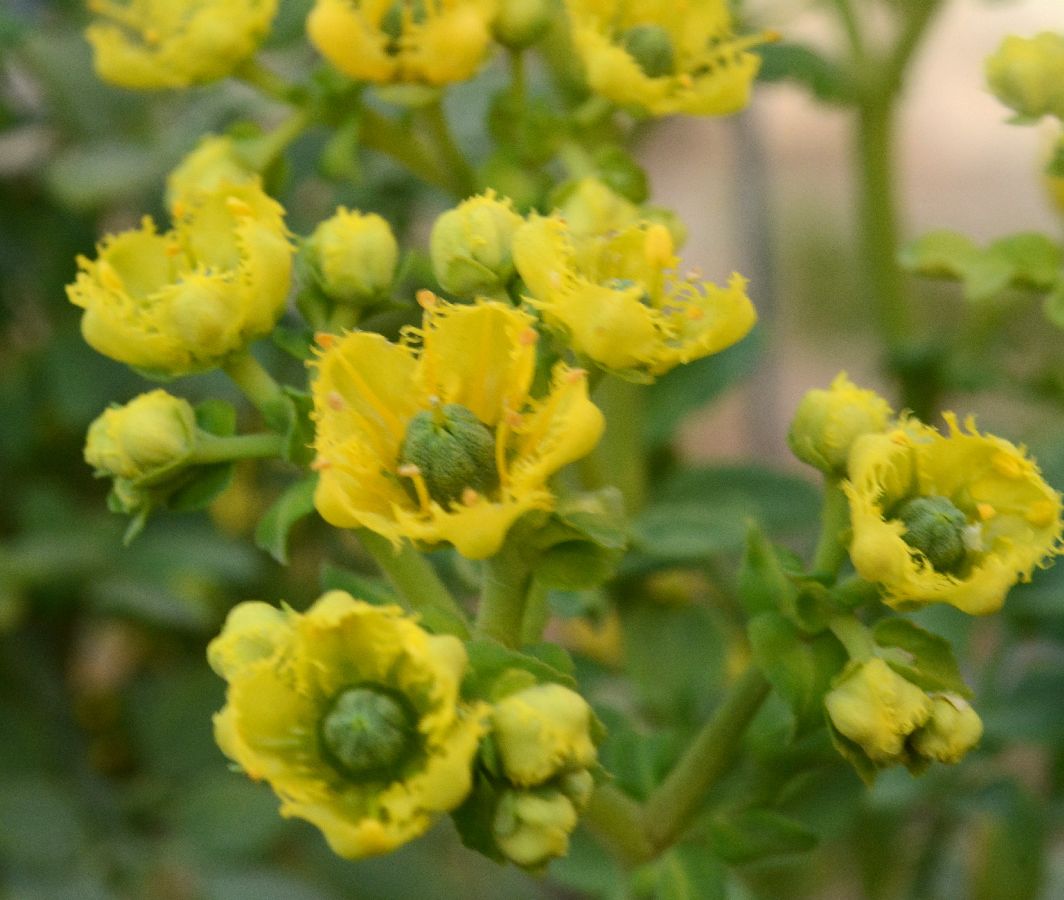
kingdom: Plantae
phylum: Tracheophyta
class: Magnoliopsida
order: Sapindales
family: Rutaceae
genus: Ruta
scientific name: Ruta chalepensis
